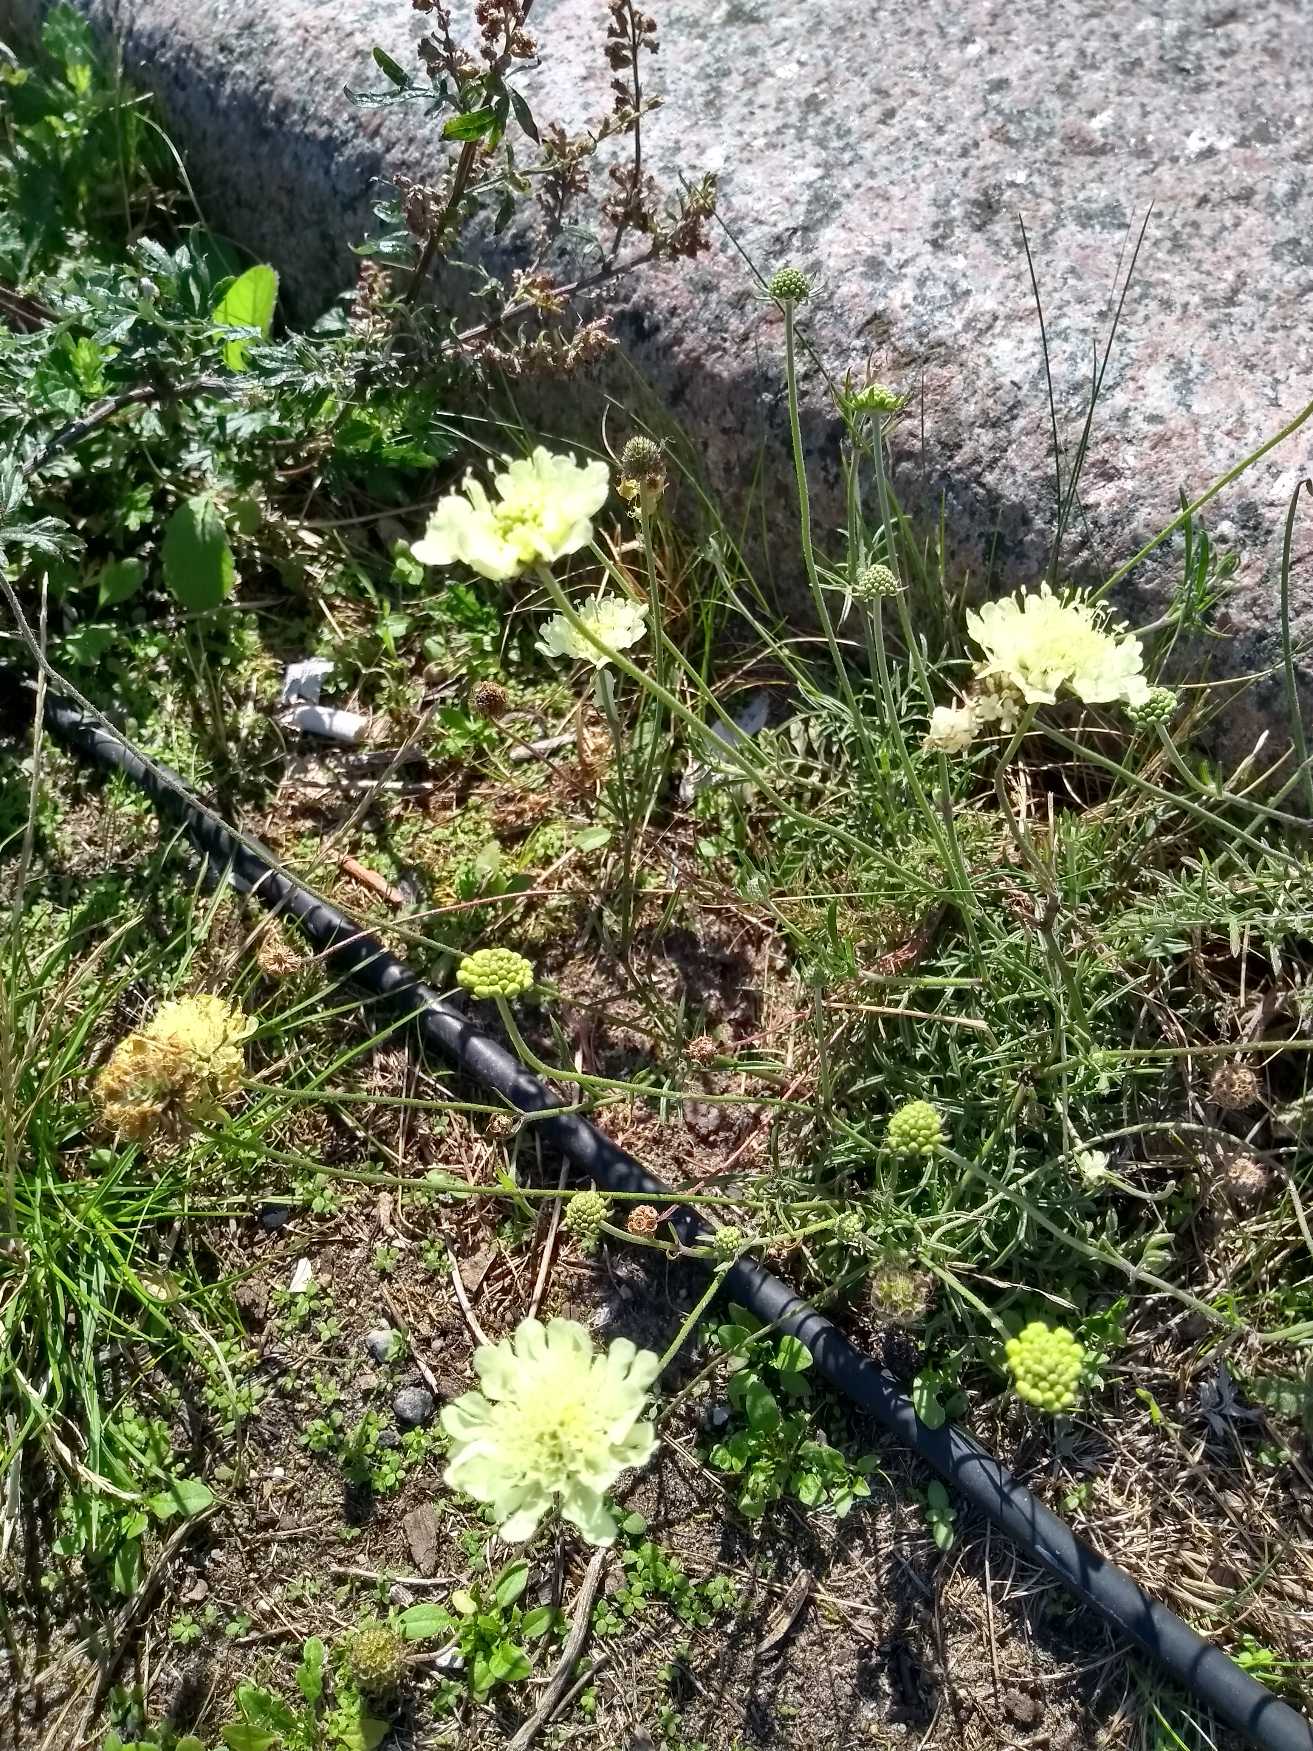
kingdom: Plantae
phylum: Tracheophyta
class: Magnoliopsida
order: Dipsacales
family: Caprifoliaceae
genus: Scabiosa
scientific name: Scabiosa ochroleuca
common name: Gul skabiose
